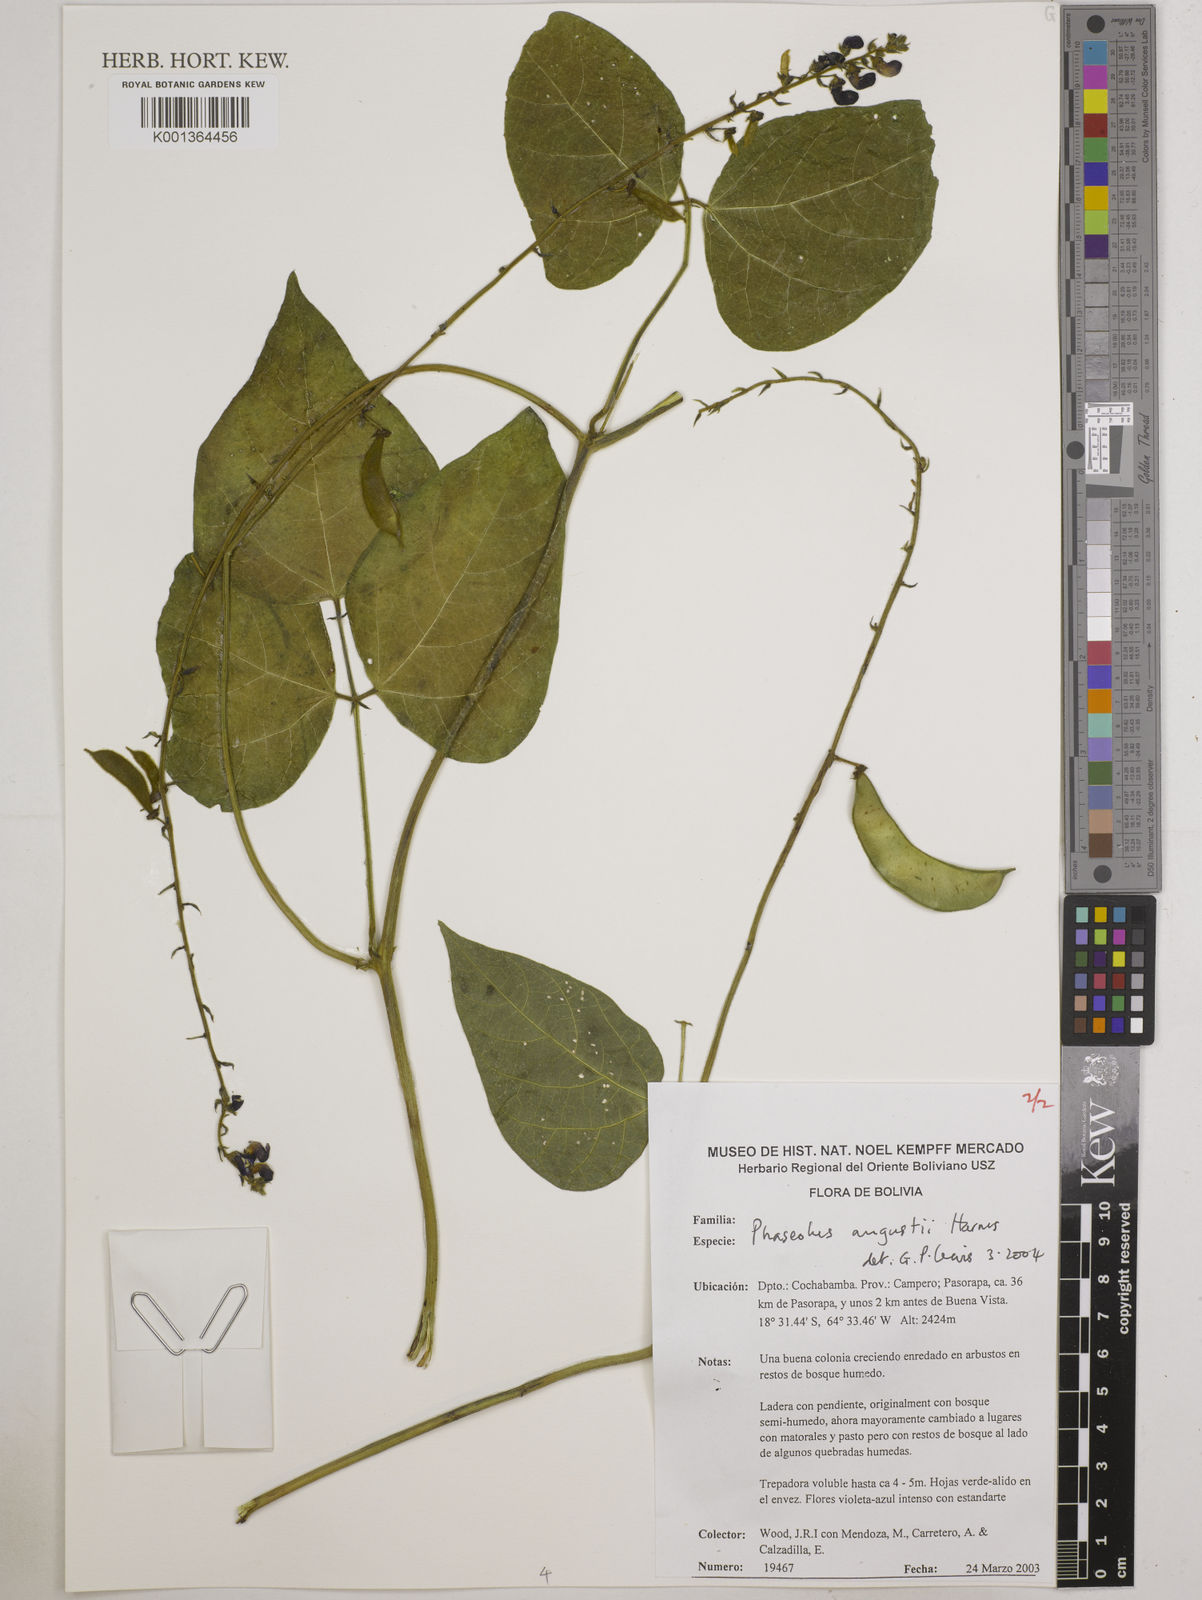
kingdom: Plantae
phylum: Tracheophyta
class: Magnoliopsida
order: Fabales
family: Fabaceae
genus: Phaseolus
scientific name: Phaseolus augusti
